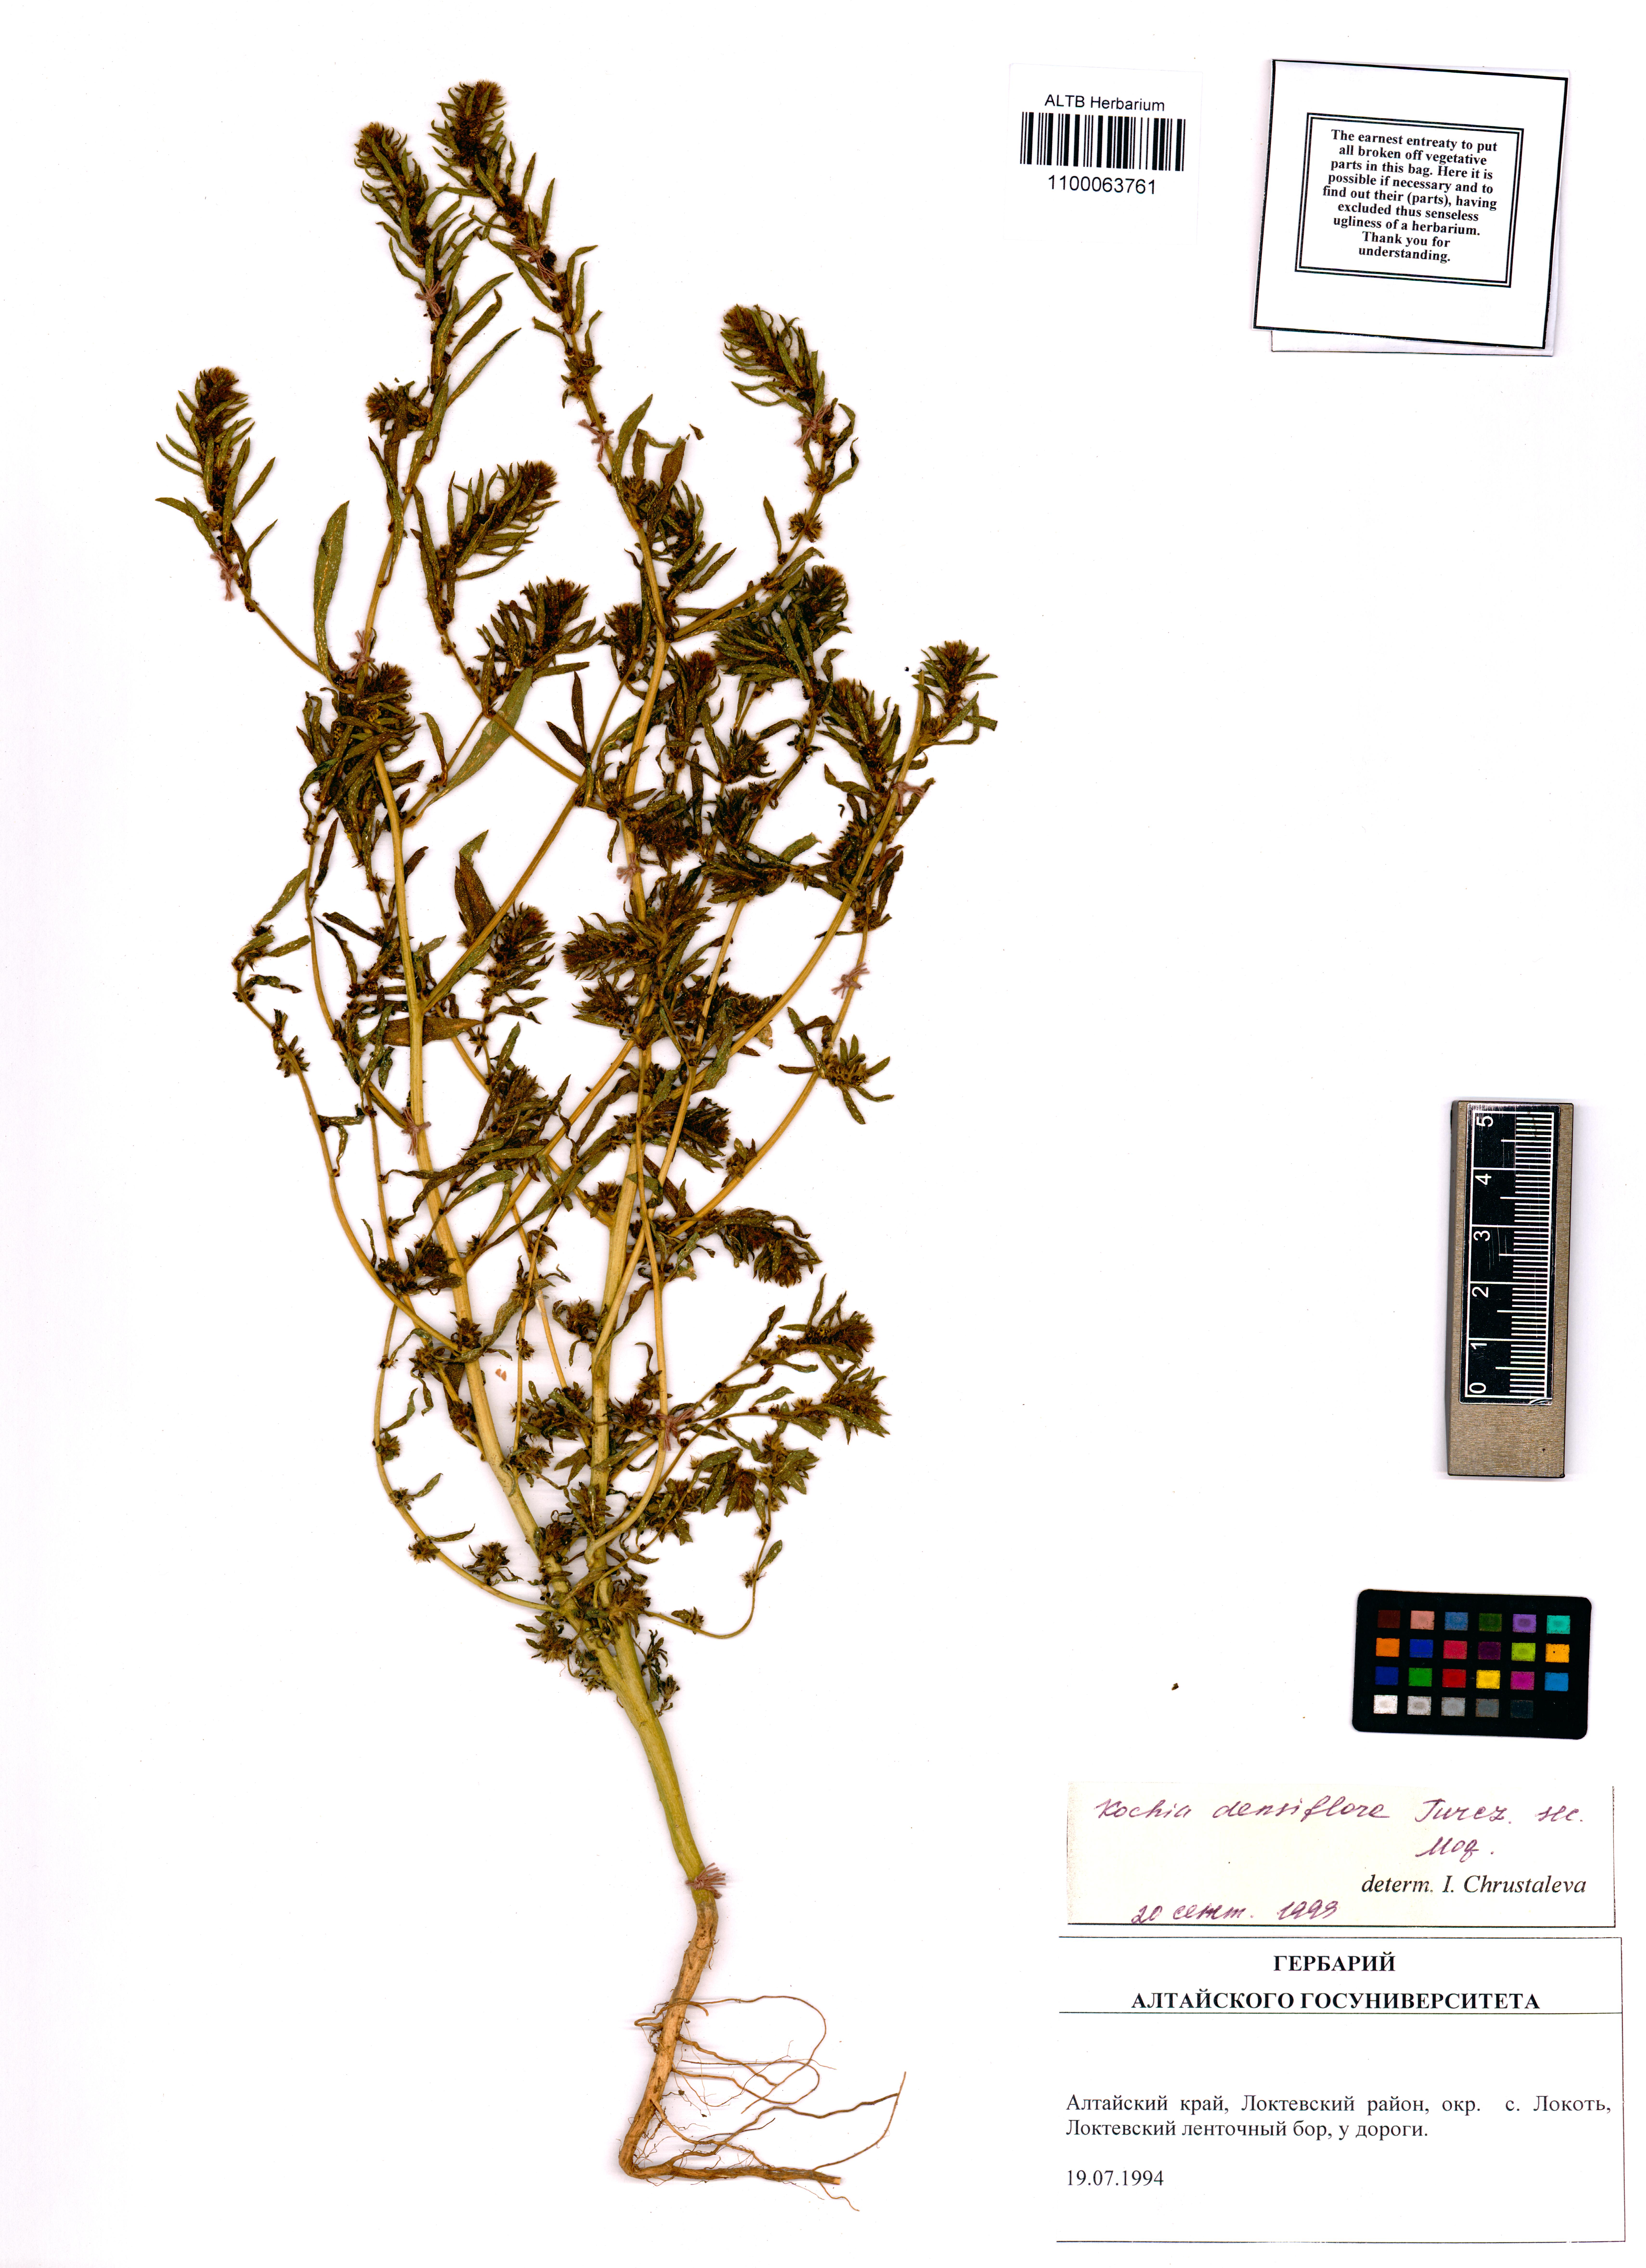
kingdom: Plantae
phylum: Tracheophyta
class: Magnoliopsida
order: Caryophyllales
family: Amaranthaceae
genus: Bassia
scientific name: Bassia scoparia
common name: Belvedere
